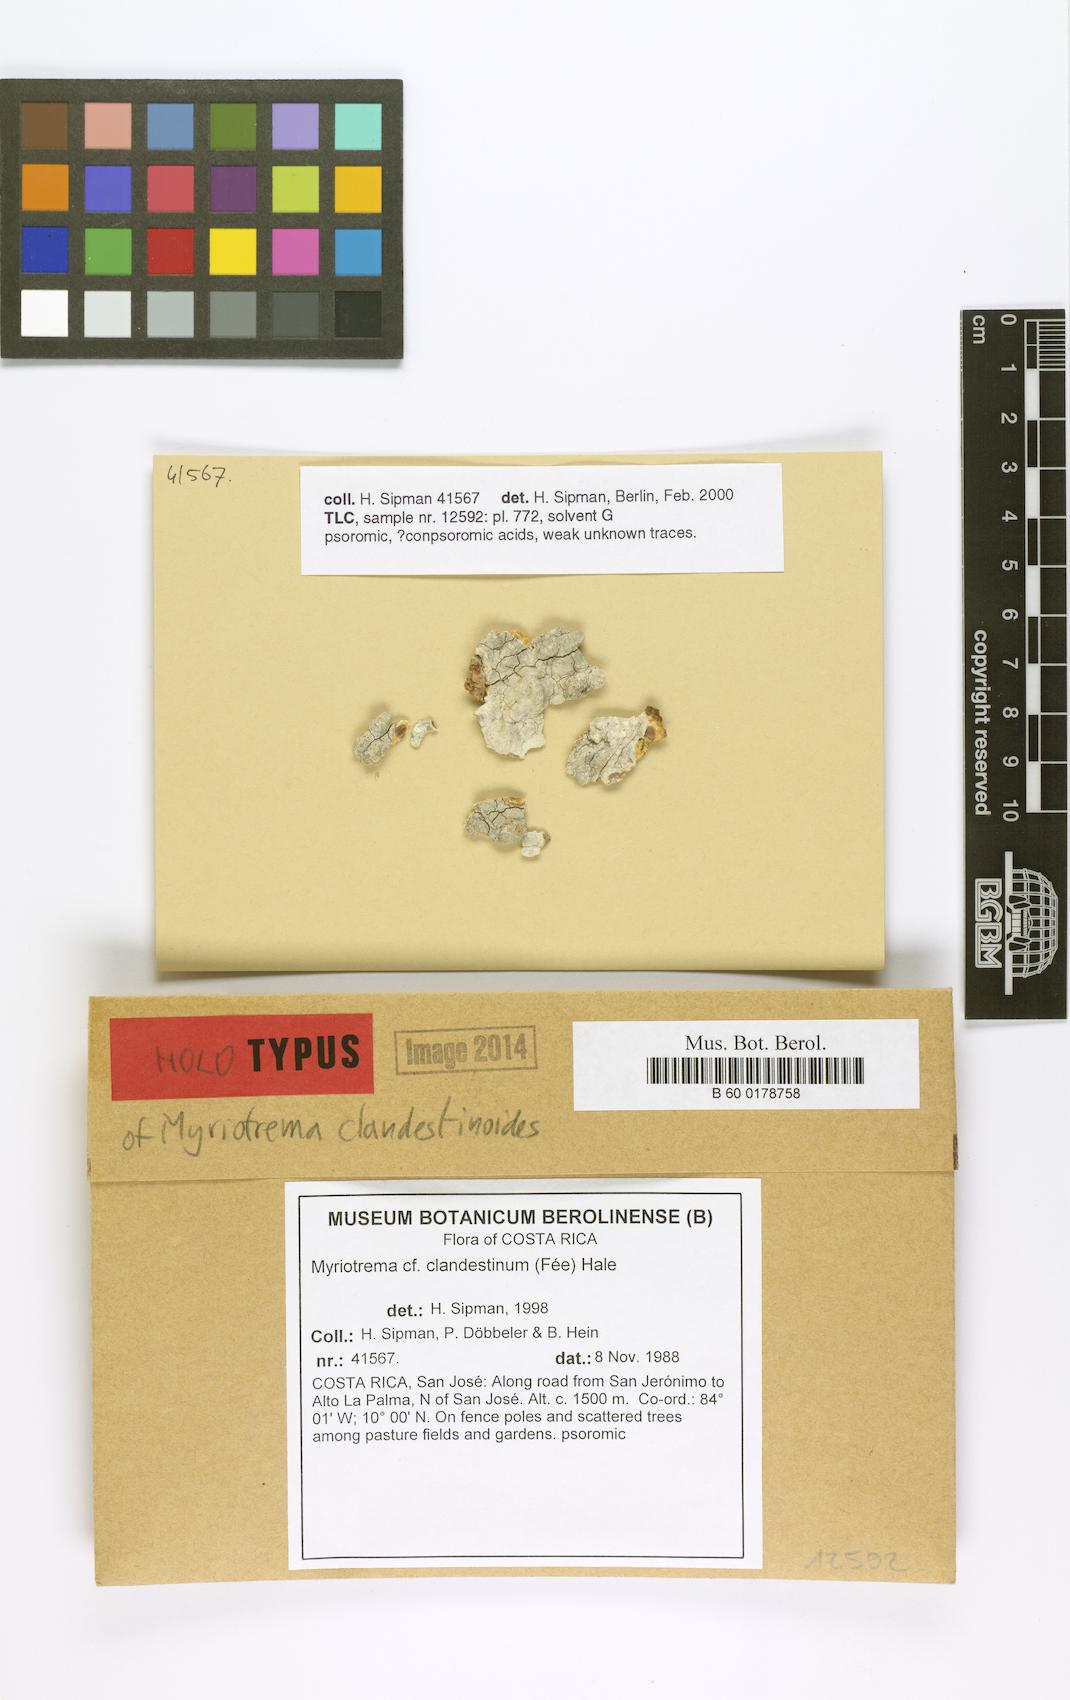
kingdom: Fungi
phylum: Ascomycota
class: Lecanoromycetes
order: Ostropales
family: Graphidaceae
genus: Myriotrema
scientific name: Myriotrema clandestinum
